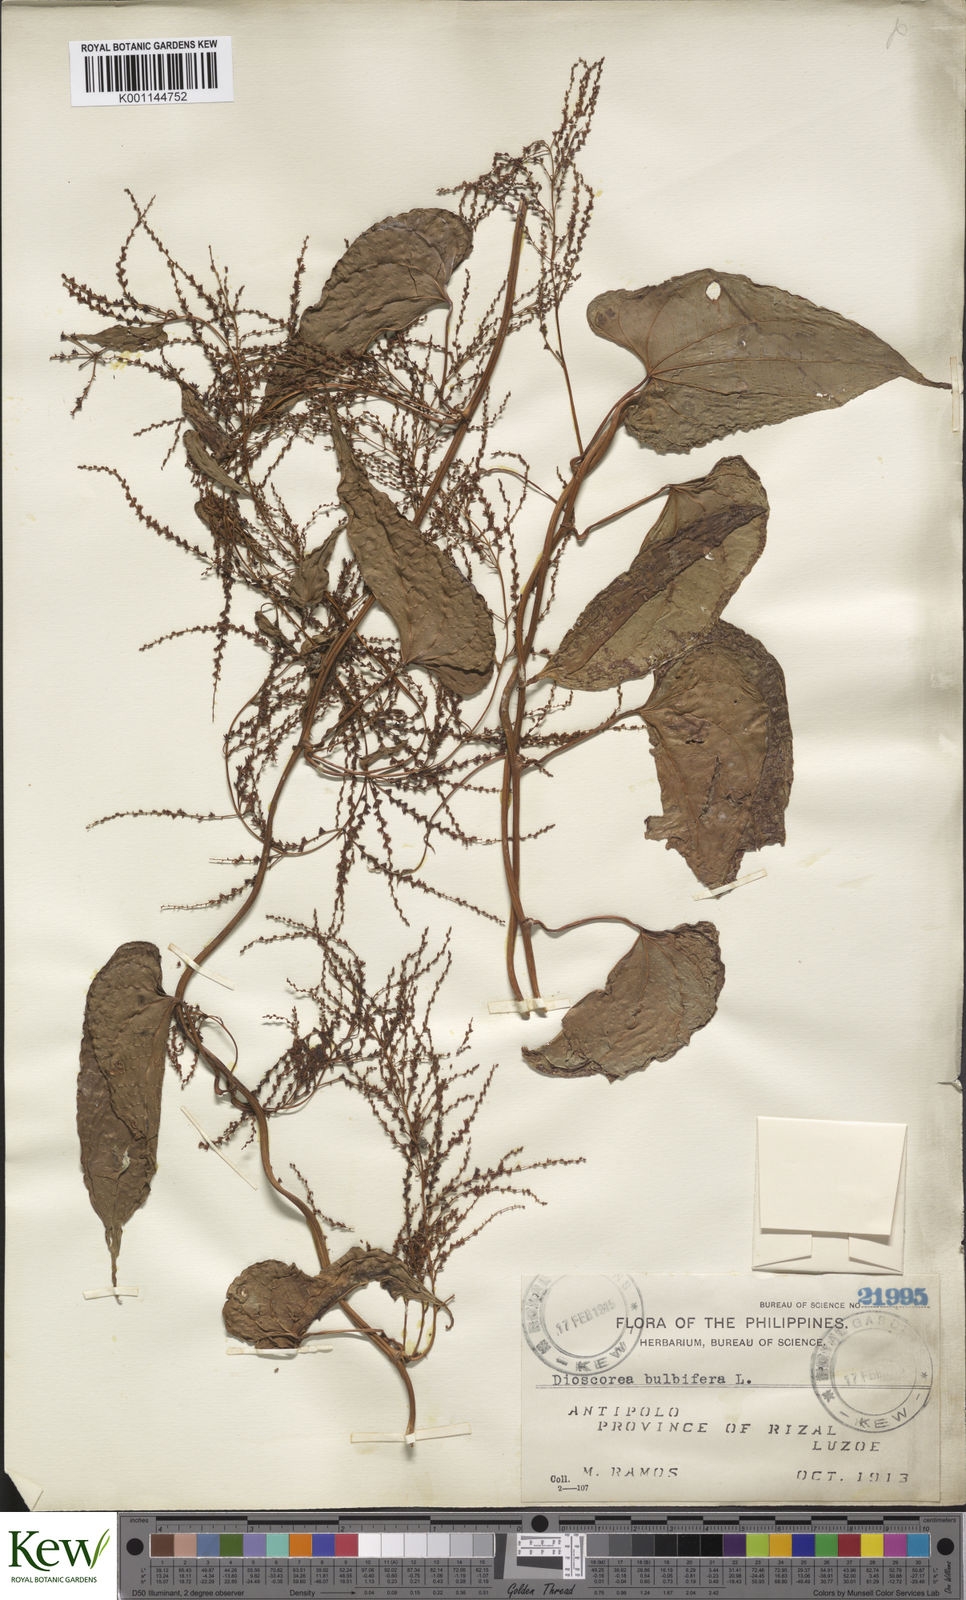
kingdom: Plantae
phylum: Tracheophyta
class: Liliopsida
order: Dioscoreales
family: Dioscoreaceae
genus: Dioscorea
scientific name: Dioscorea bulbifera
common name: Air yam
